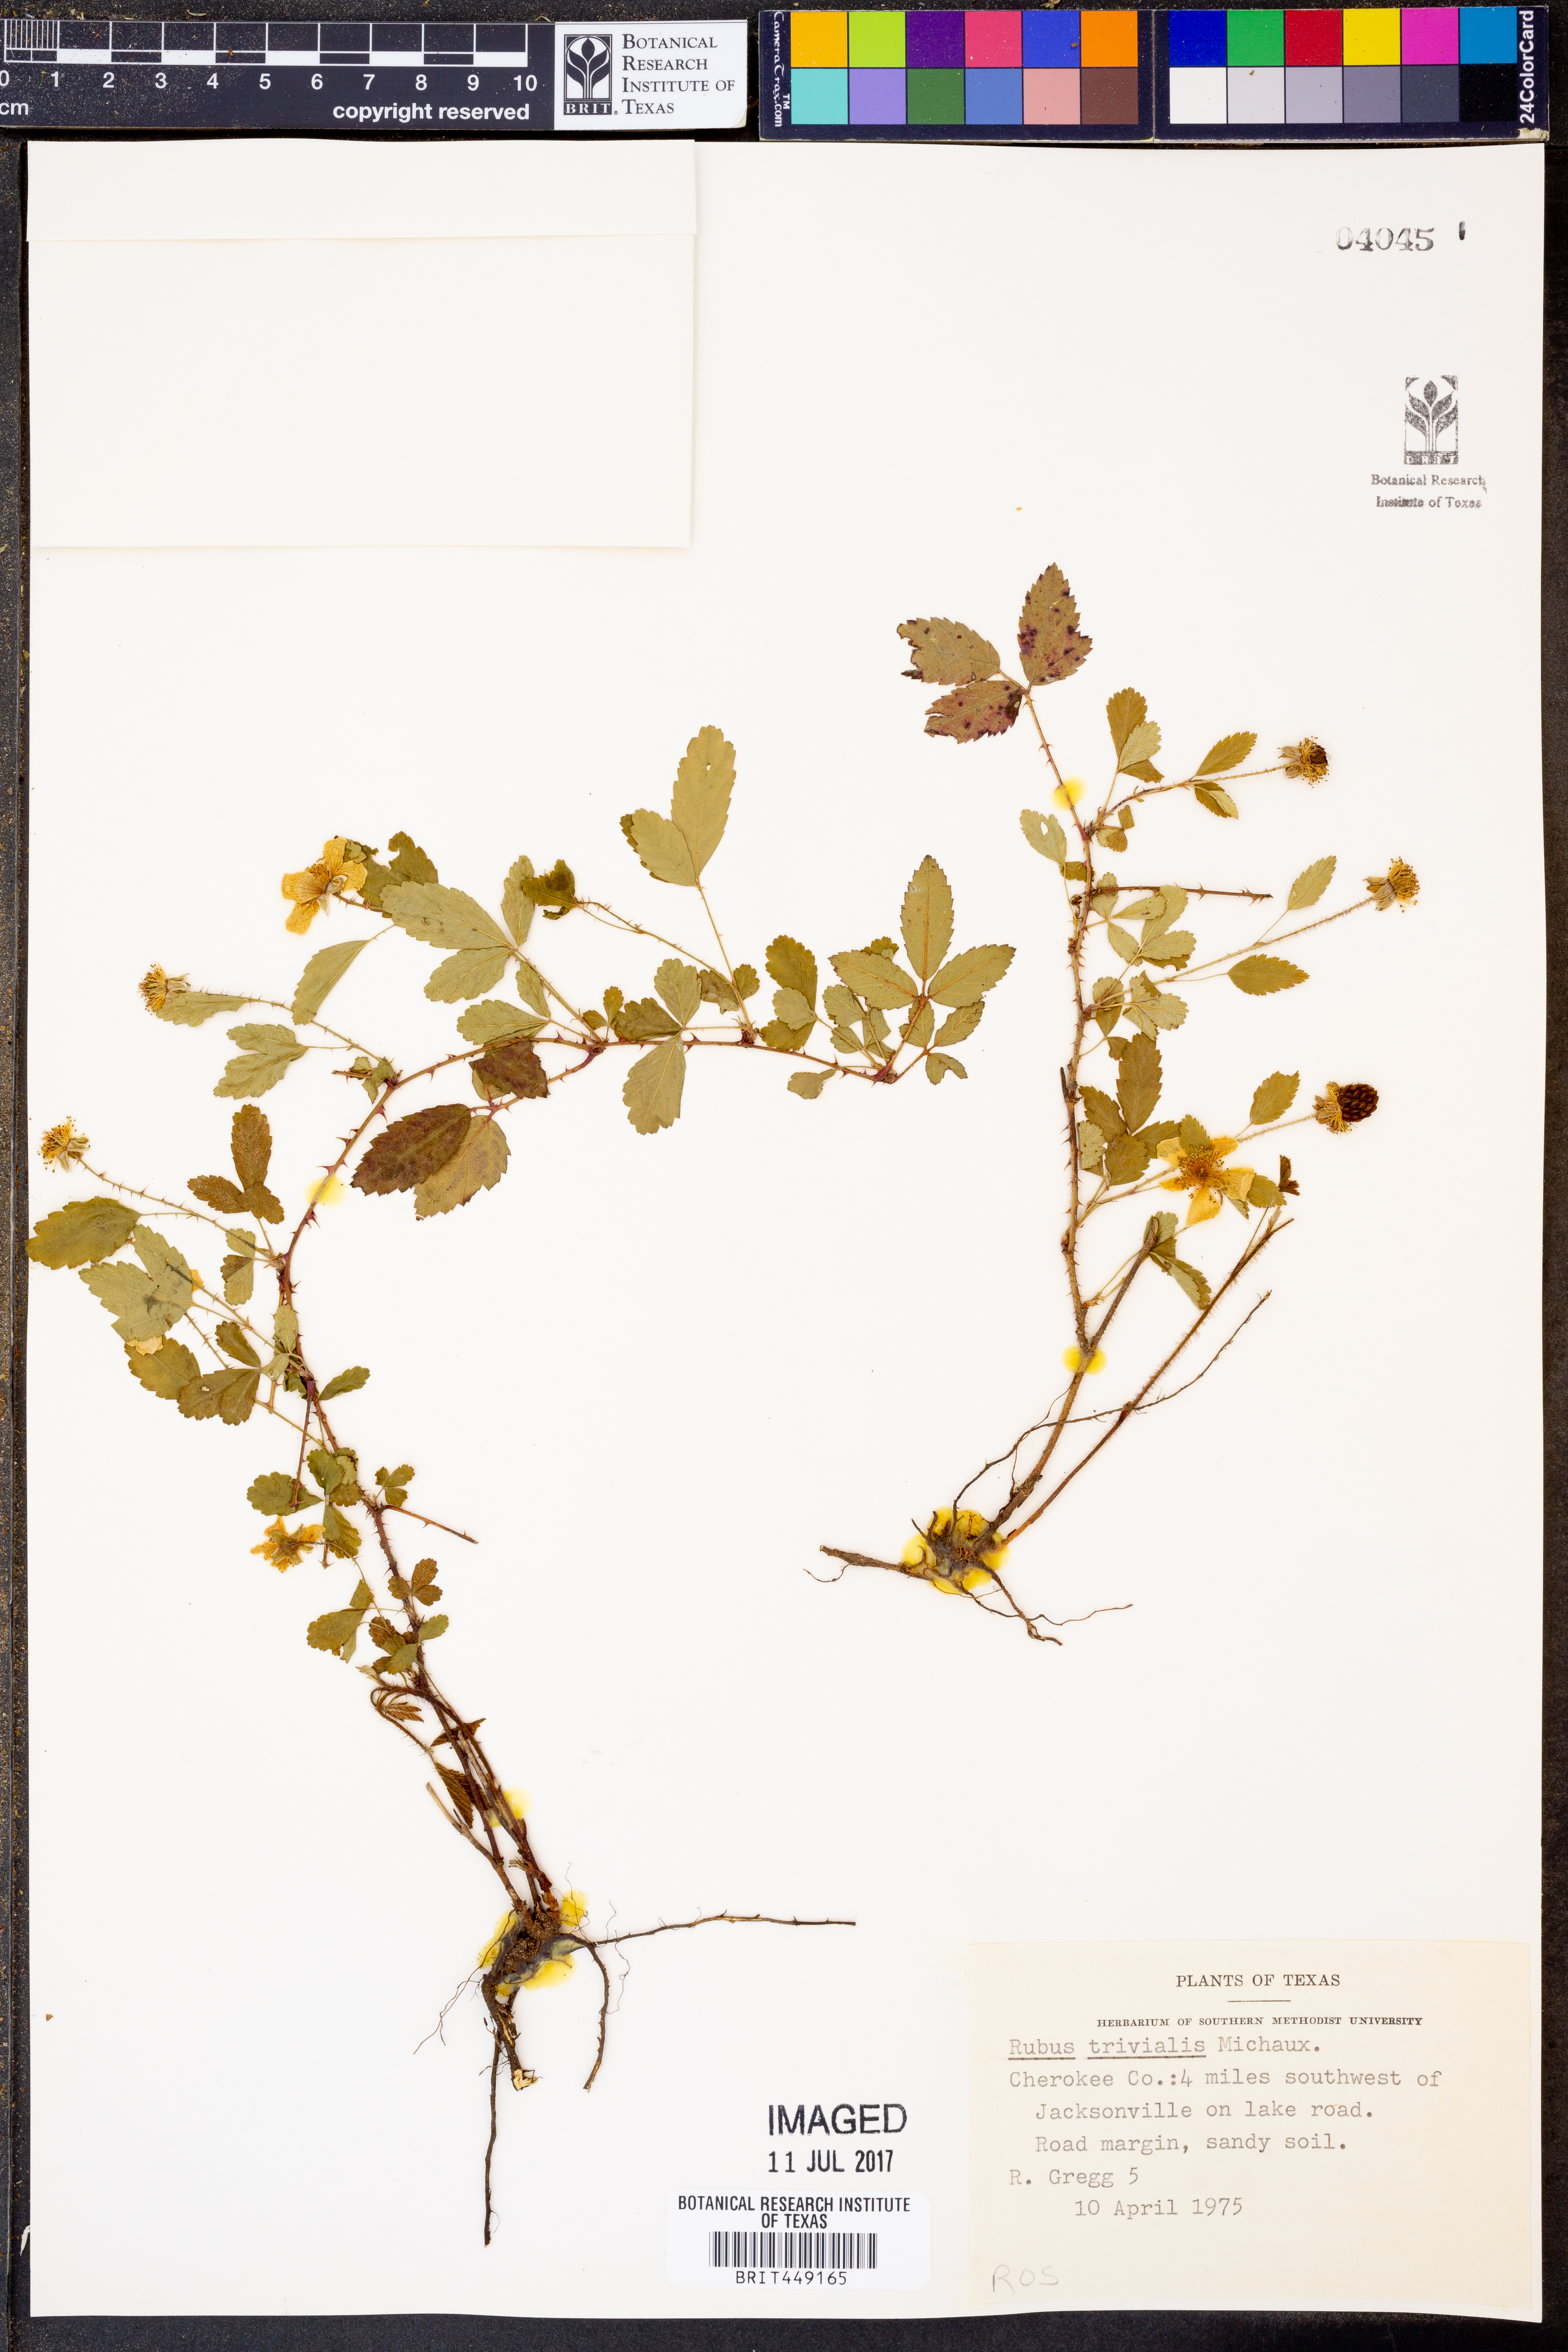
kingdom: Plantae
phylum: Tracheophyta
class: Magnoliopsida
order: Rosales
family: Rosaceae
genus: Rubus
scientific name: Rubus trivialis
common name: Southern dewberry
